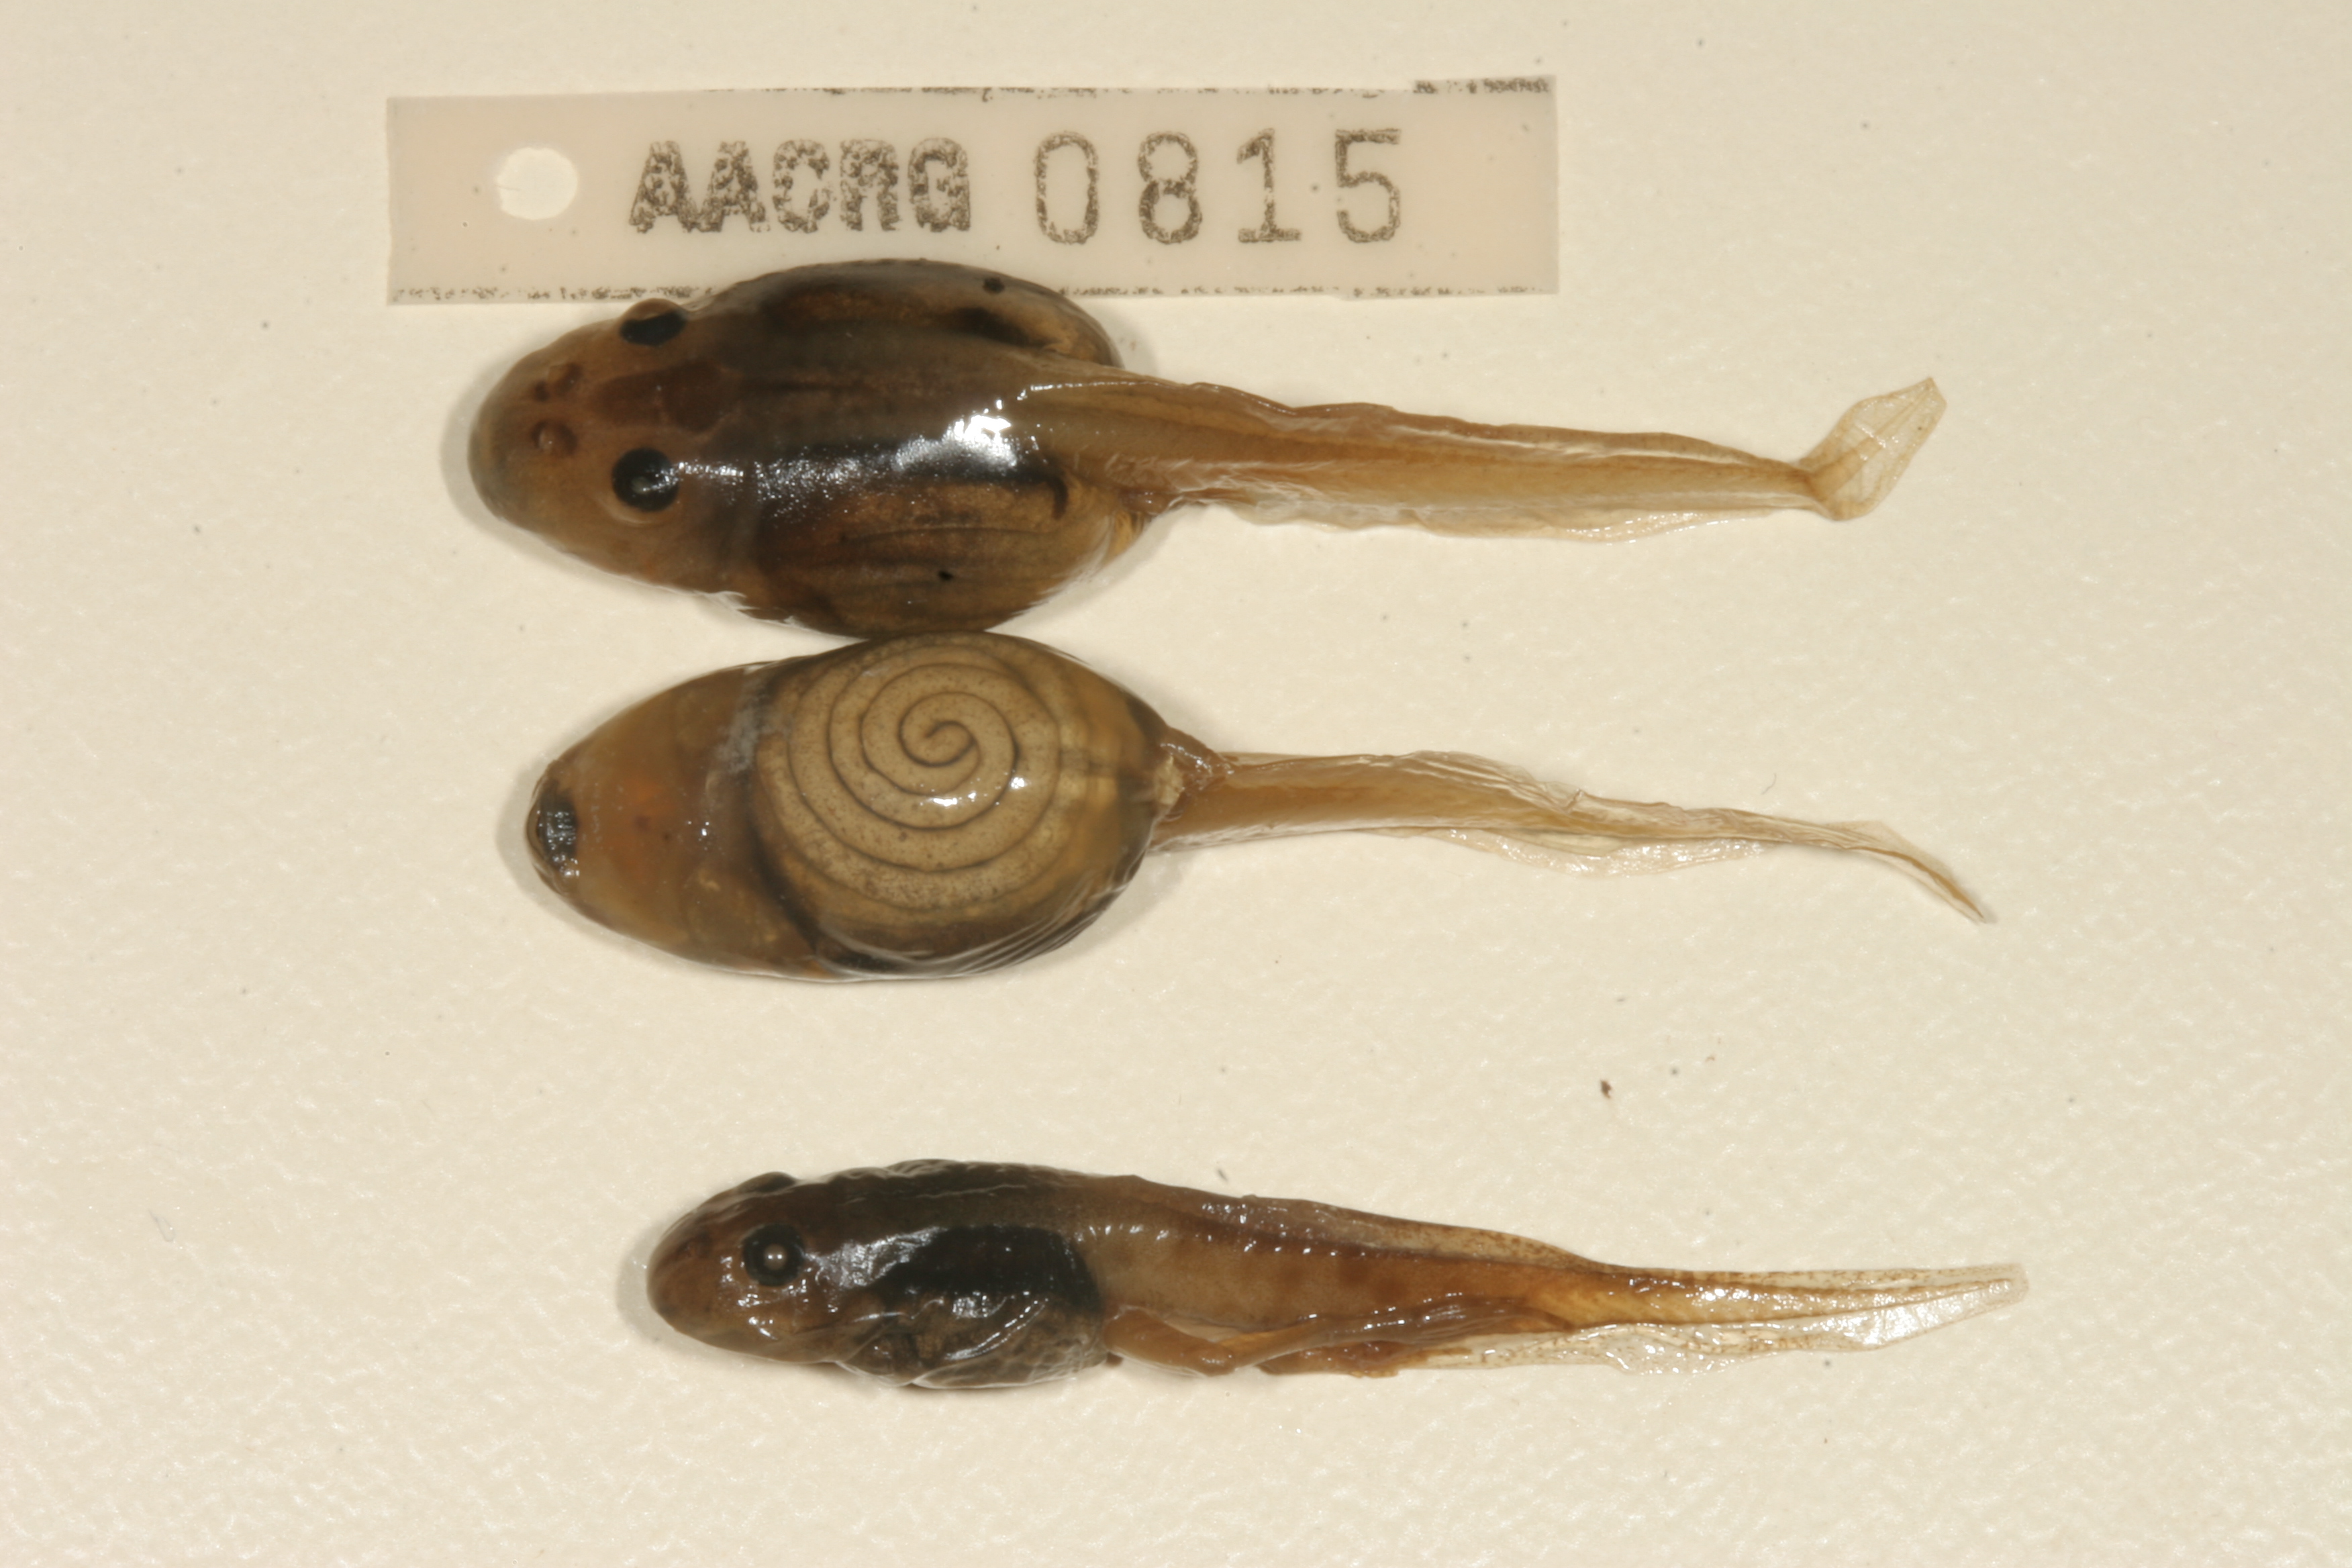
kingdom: Animalia
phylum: Chordata
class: Amphibia
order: Anura
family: Pyxicephalidae
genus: Strongylopus
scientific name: Strongylopus grayii
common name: Gray's stream frog
